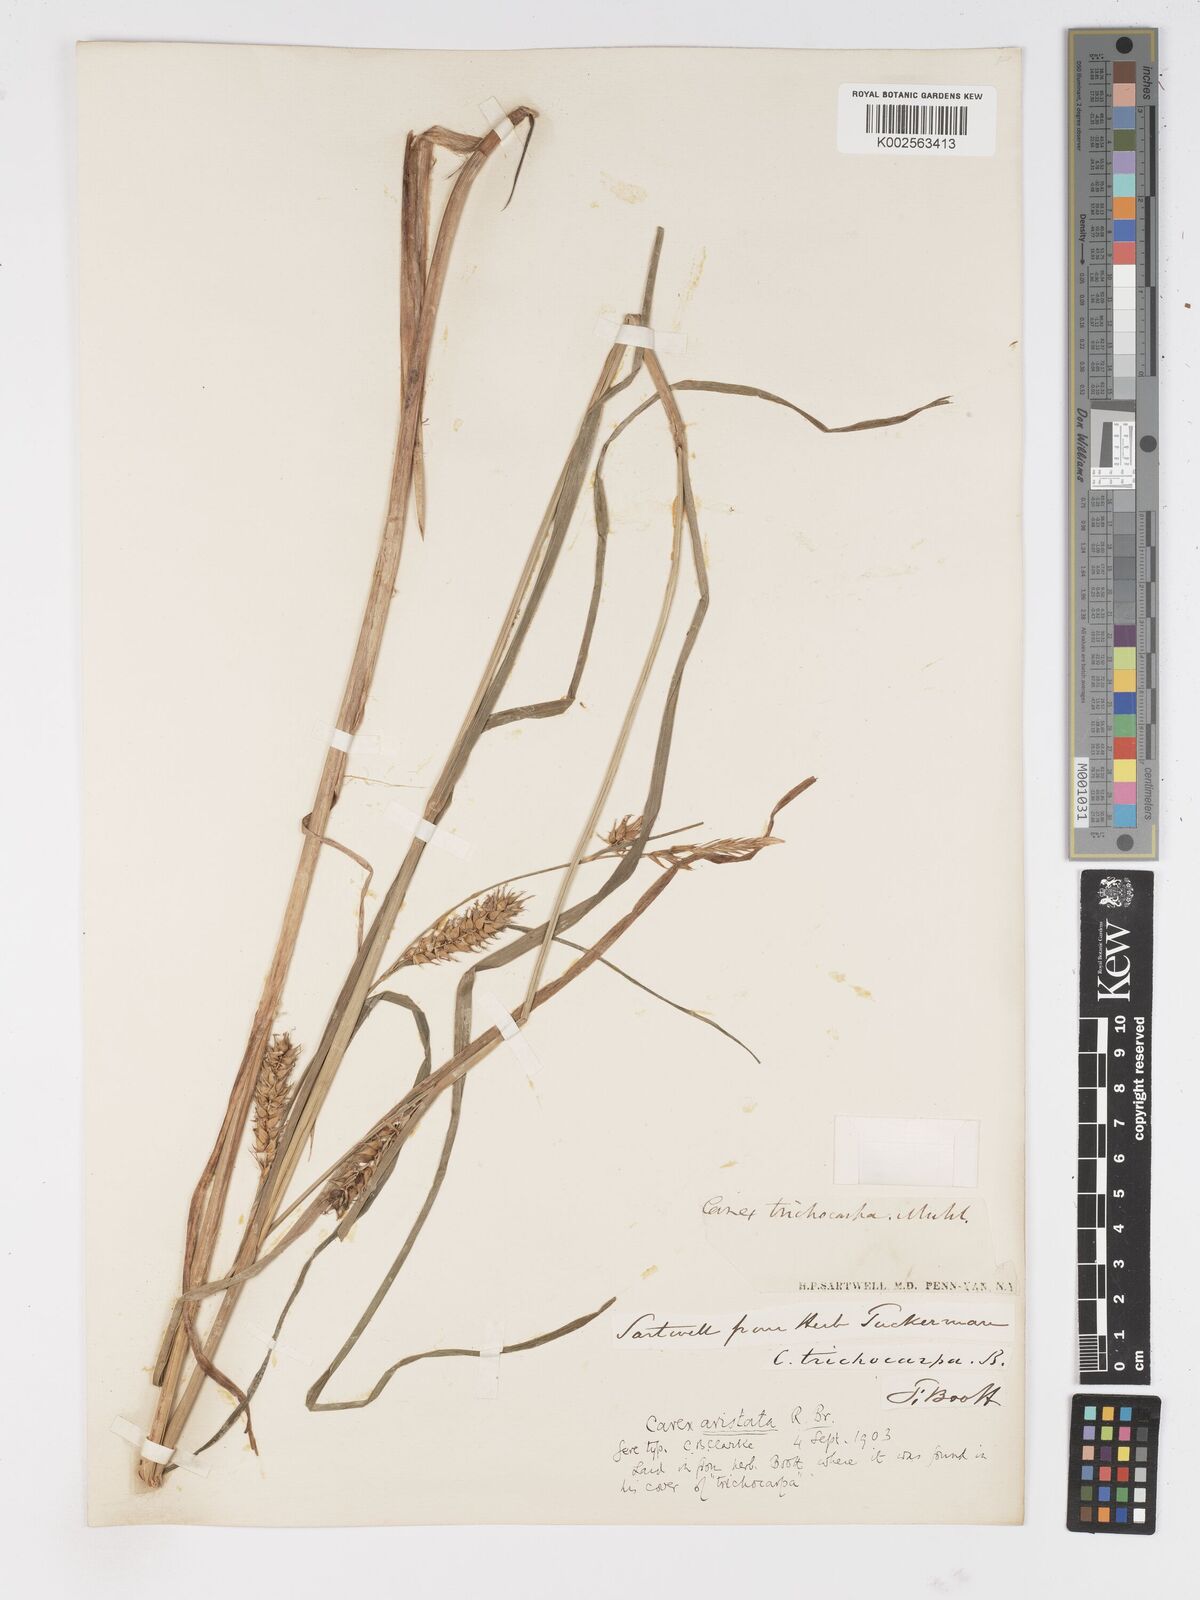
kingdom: Plantae
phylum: Tracheophyta
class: Liliopsida
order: Poales
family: Cyperaceae
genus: Carex
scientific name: Carex atherodes
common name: Wheat sedge
